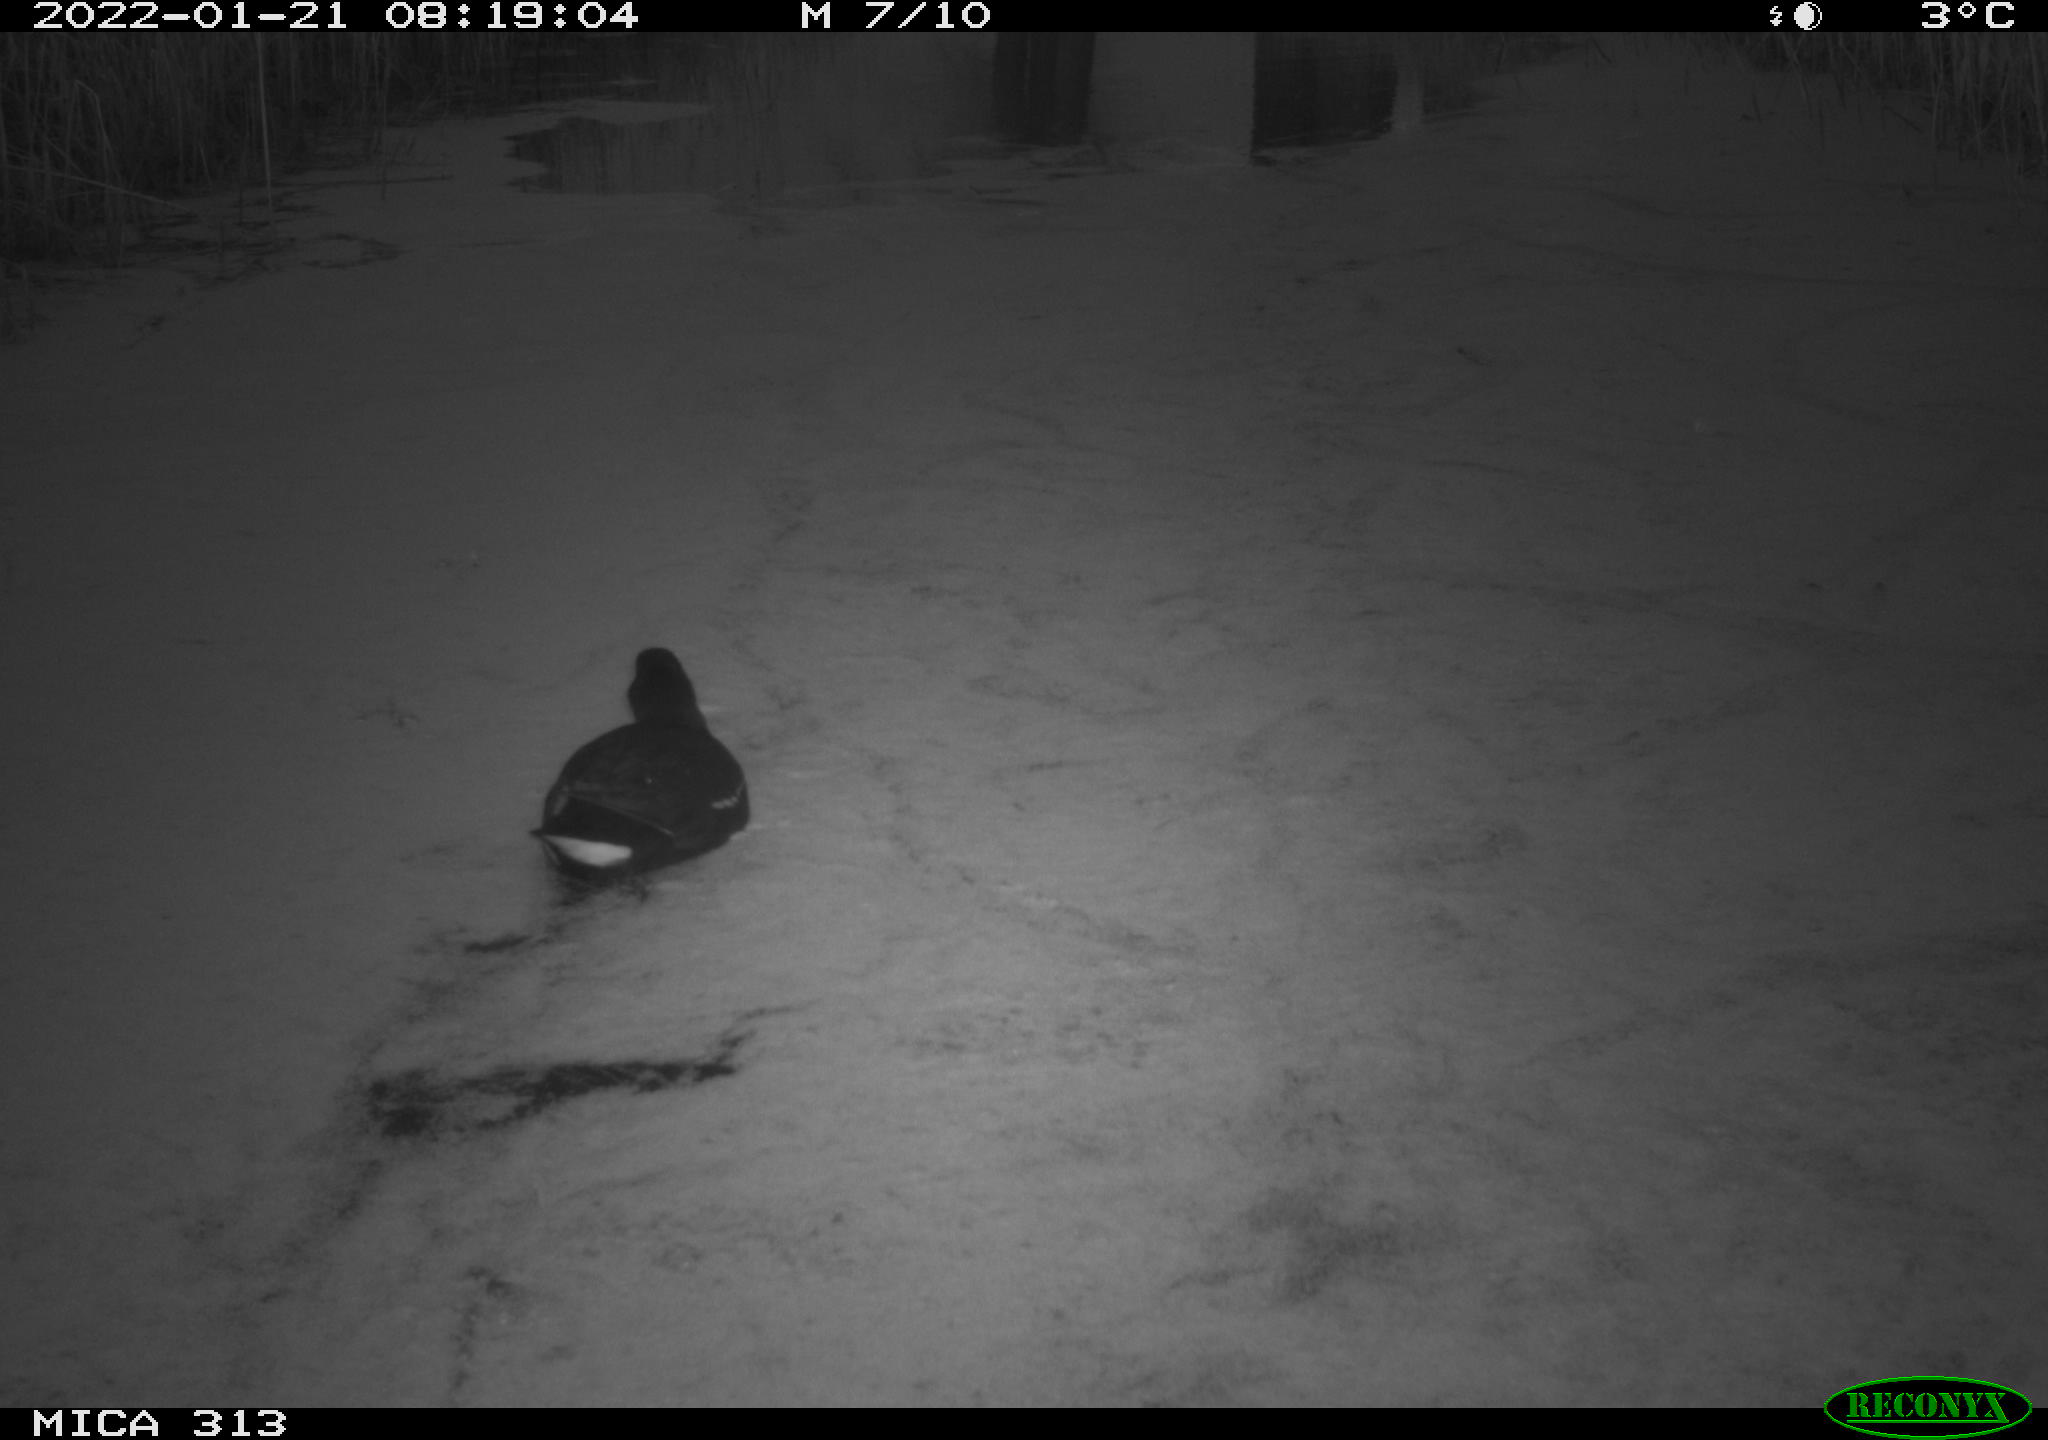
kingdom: Animalia
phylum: Chordata
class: Aves
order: Gruiformes
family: Rallidae
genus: Gallinula
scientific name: Gallinula chloropus
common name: Common moorhen
